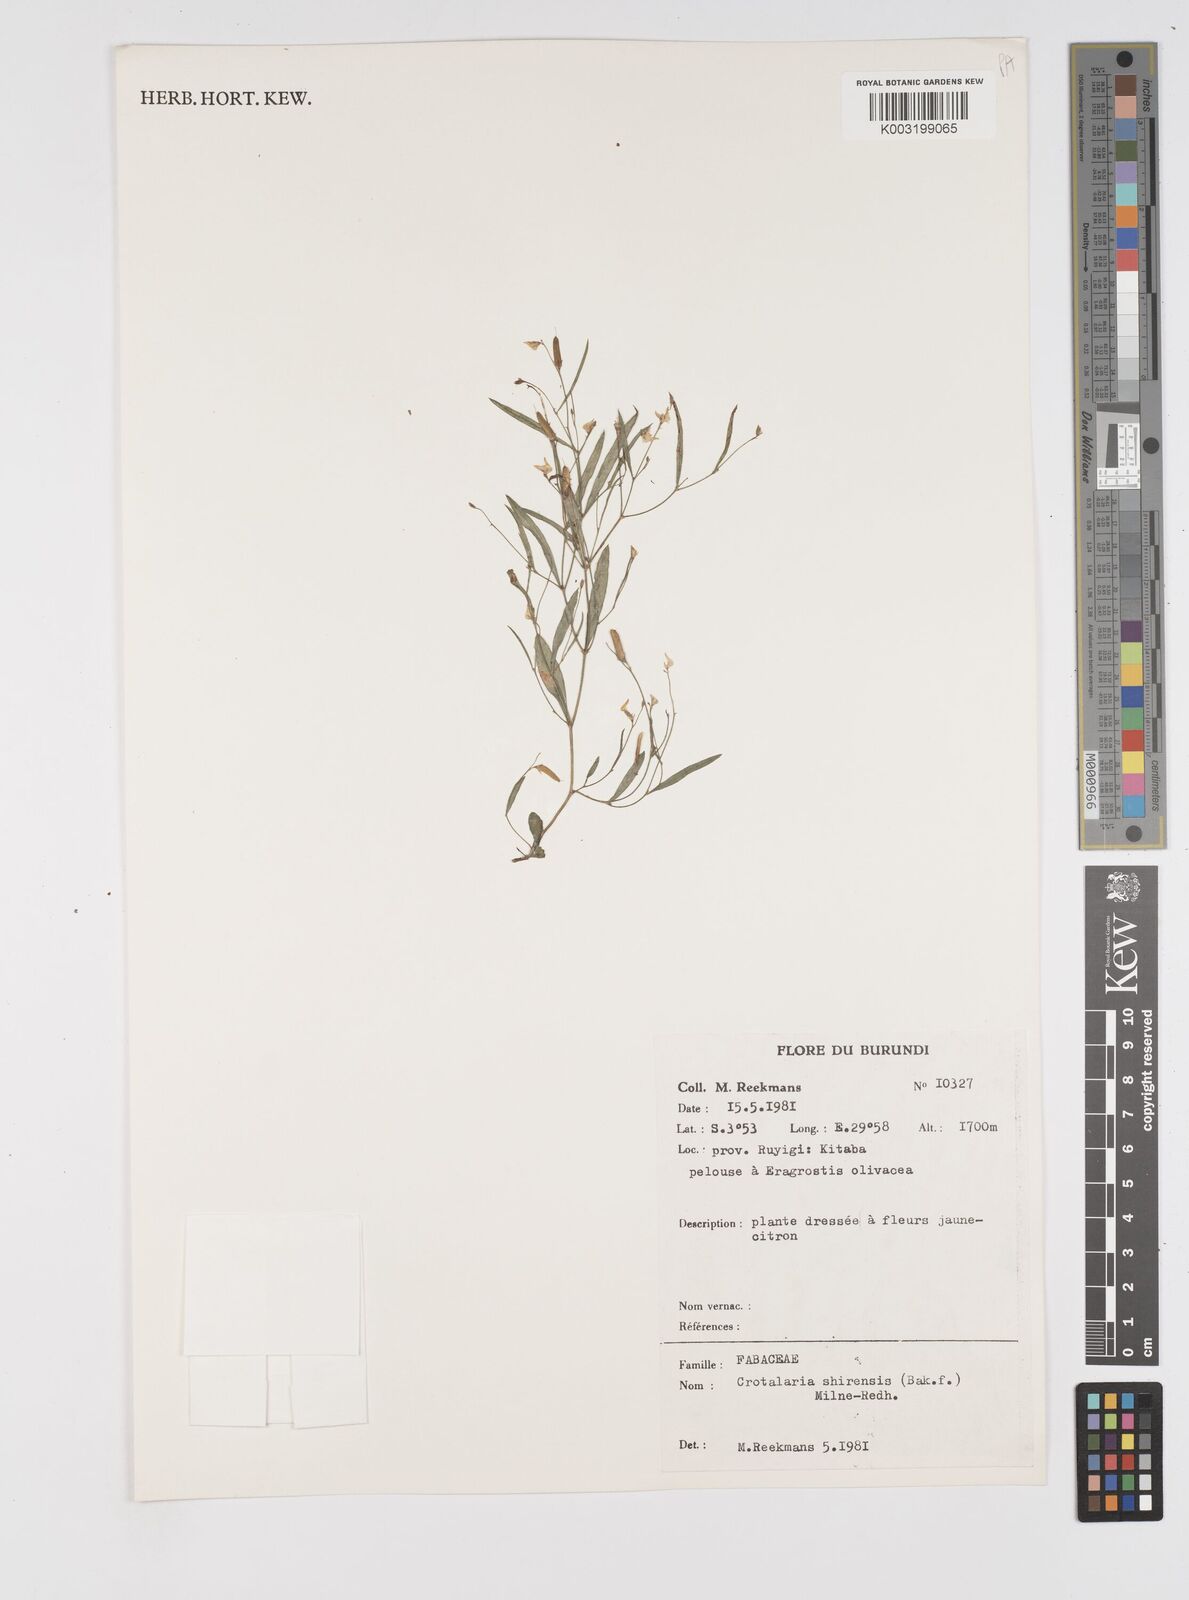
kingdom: Plantae
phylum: Tracheophyta
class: Magnoliopsida
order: Fabales
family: Fabaceae
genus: Crotalaria
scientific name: Crotalaria shirensis
